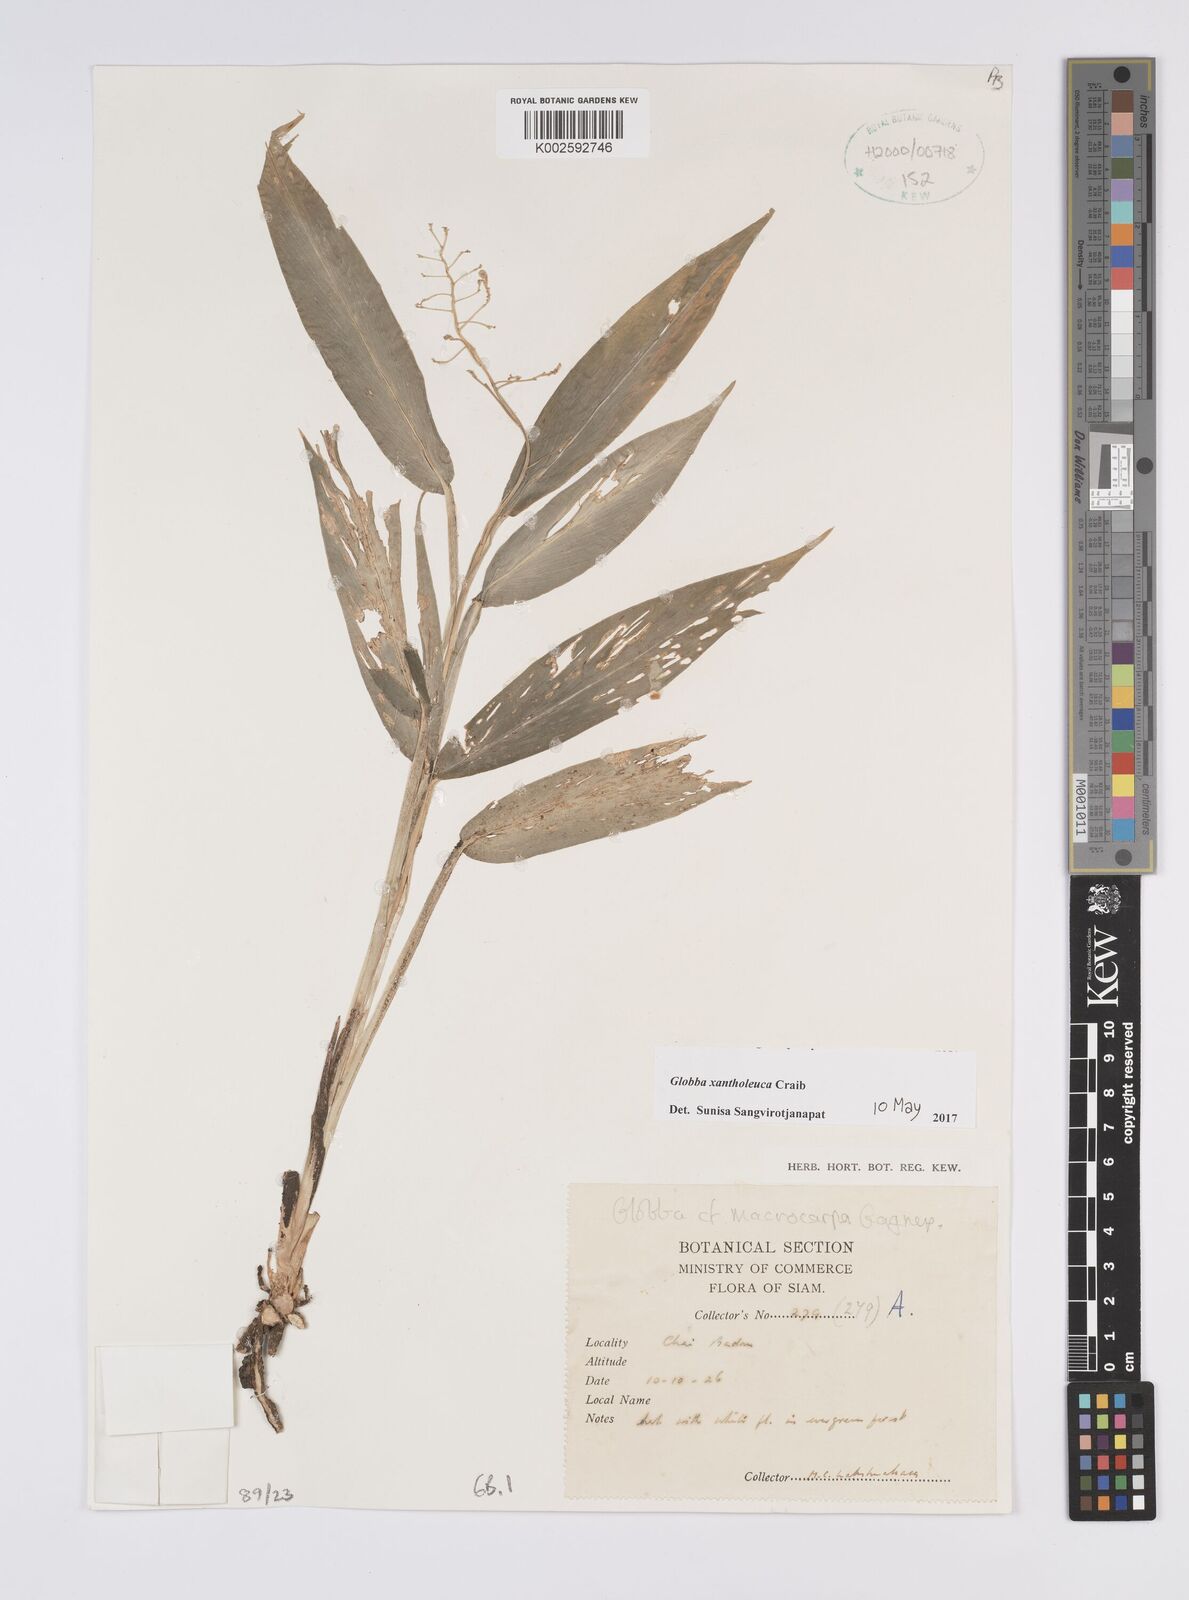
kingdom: Plantae
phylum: Tracheophyta
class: Liliopsida
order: Zingiberales
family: Zingiberaceae
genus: Globba
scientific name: Globba xantholeuca
